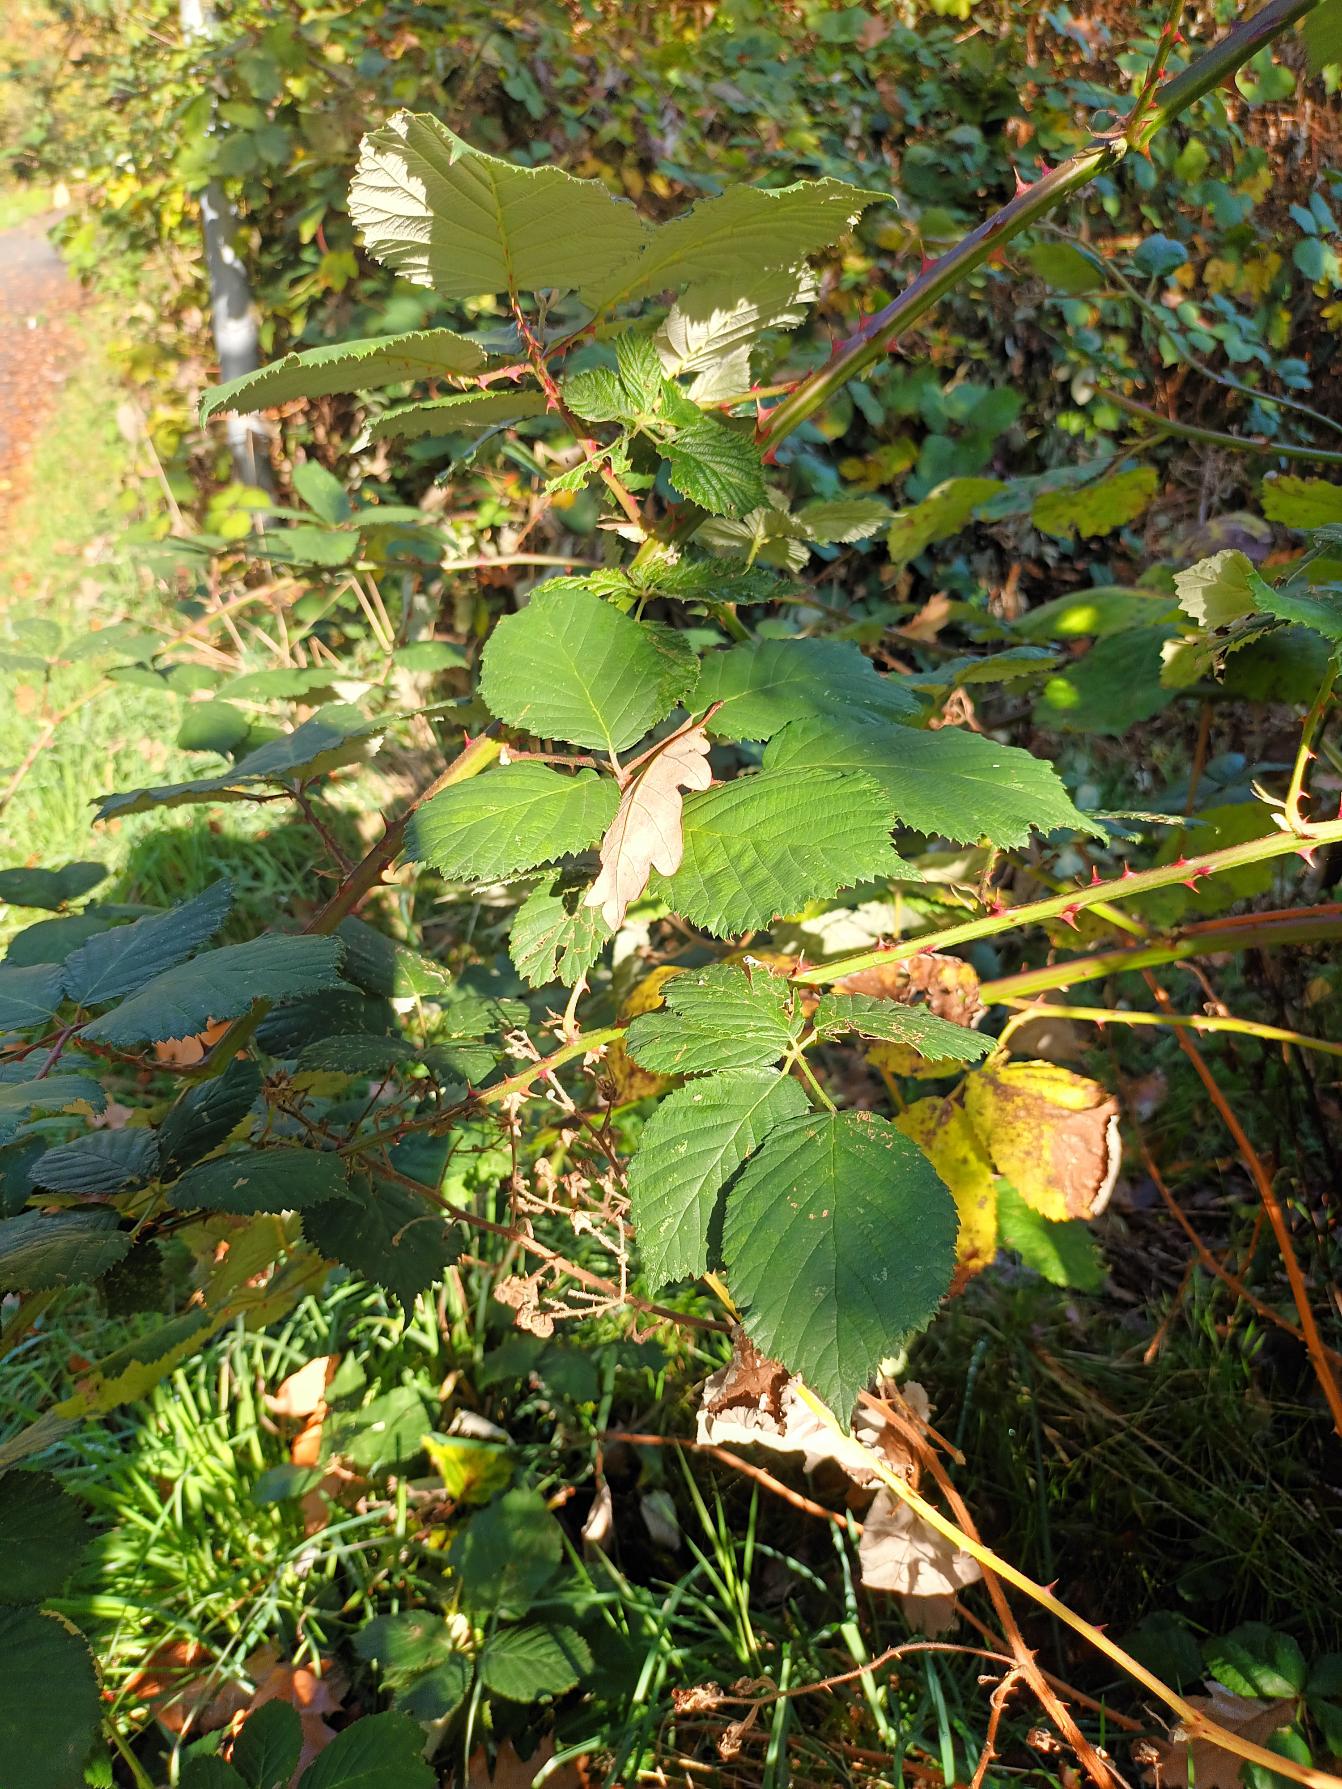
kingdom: Plantae
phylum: Tracheophyta
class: Magnoliopsida
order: Rosales
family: Rosaceae
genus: Rubus
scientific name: Rubus armeniacus
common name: Armensk brombær
